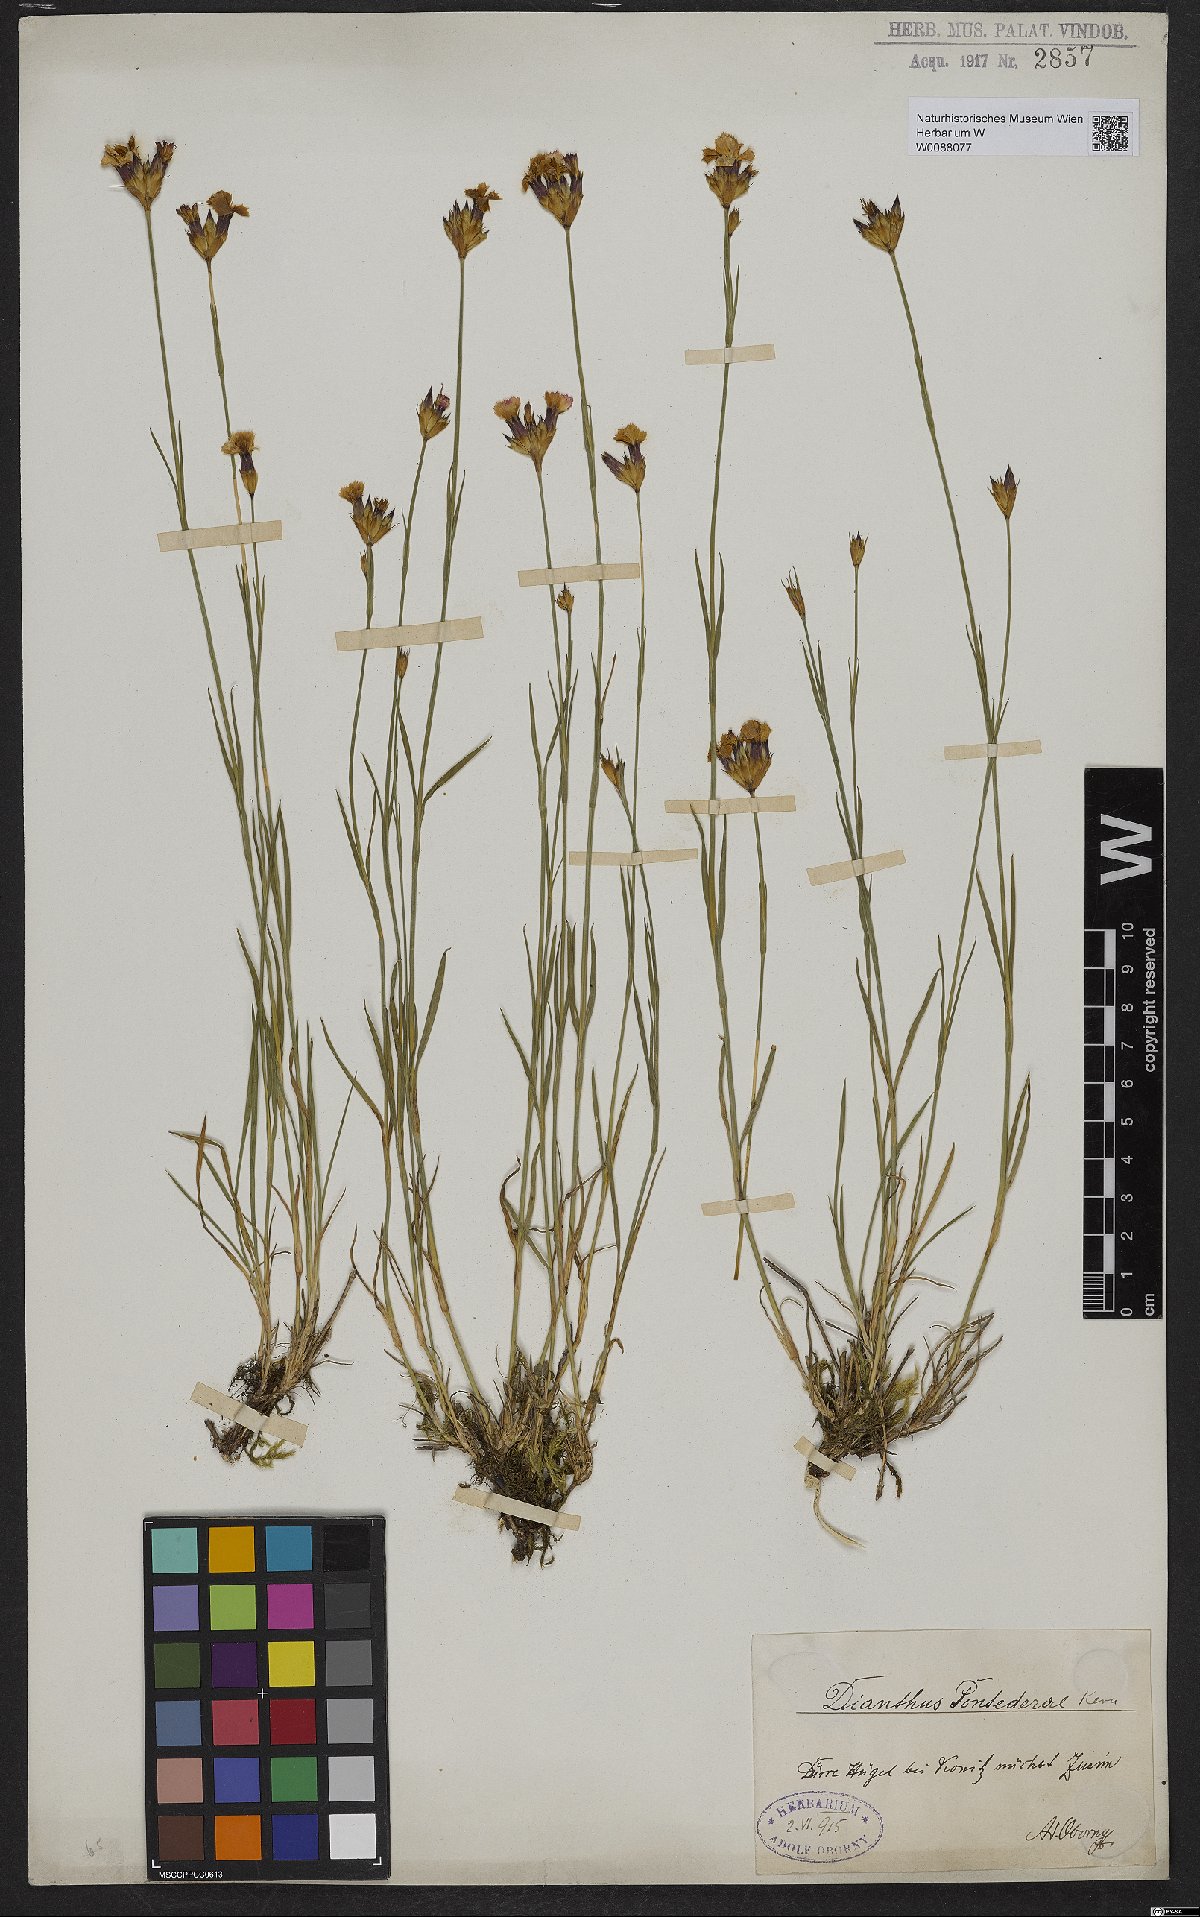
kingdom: Plantae
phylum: Tracheophyta
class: Magnoliopsida
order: Caryophyllales
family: Caryophyllaceae
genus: Dianthus
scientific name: Dianthus pontederae
